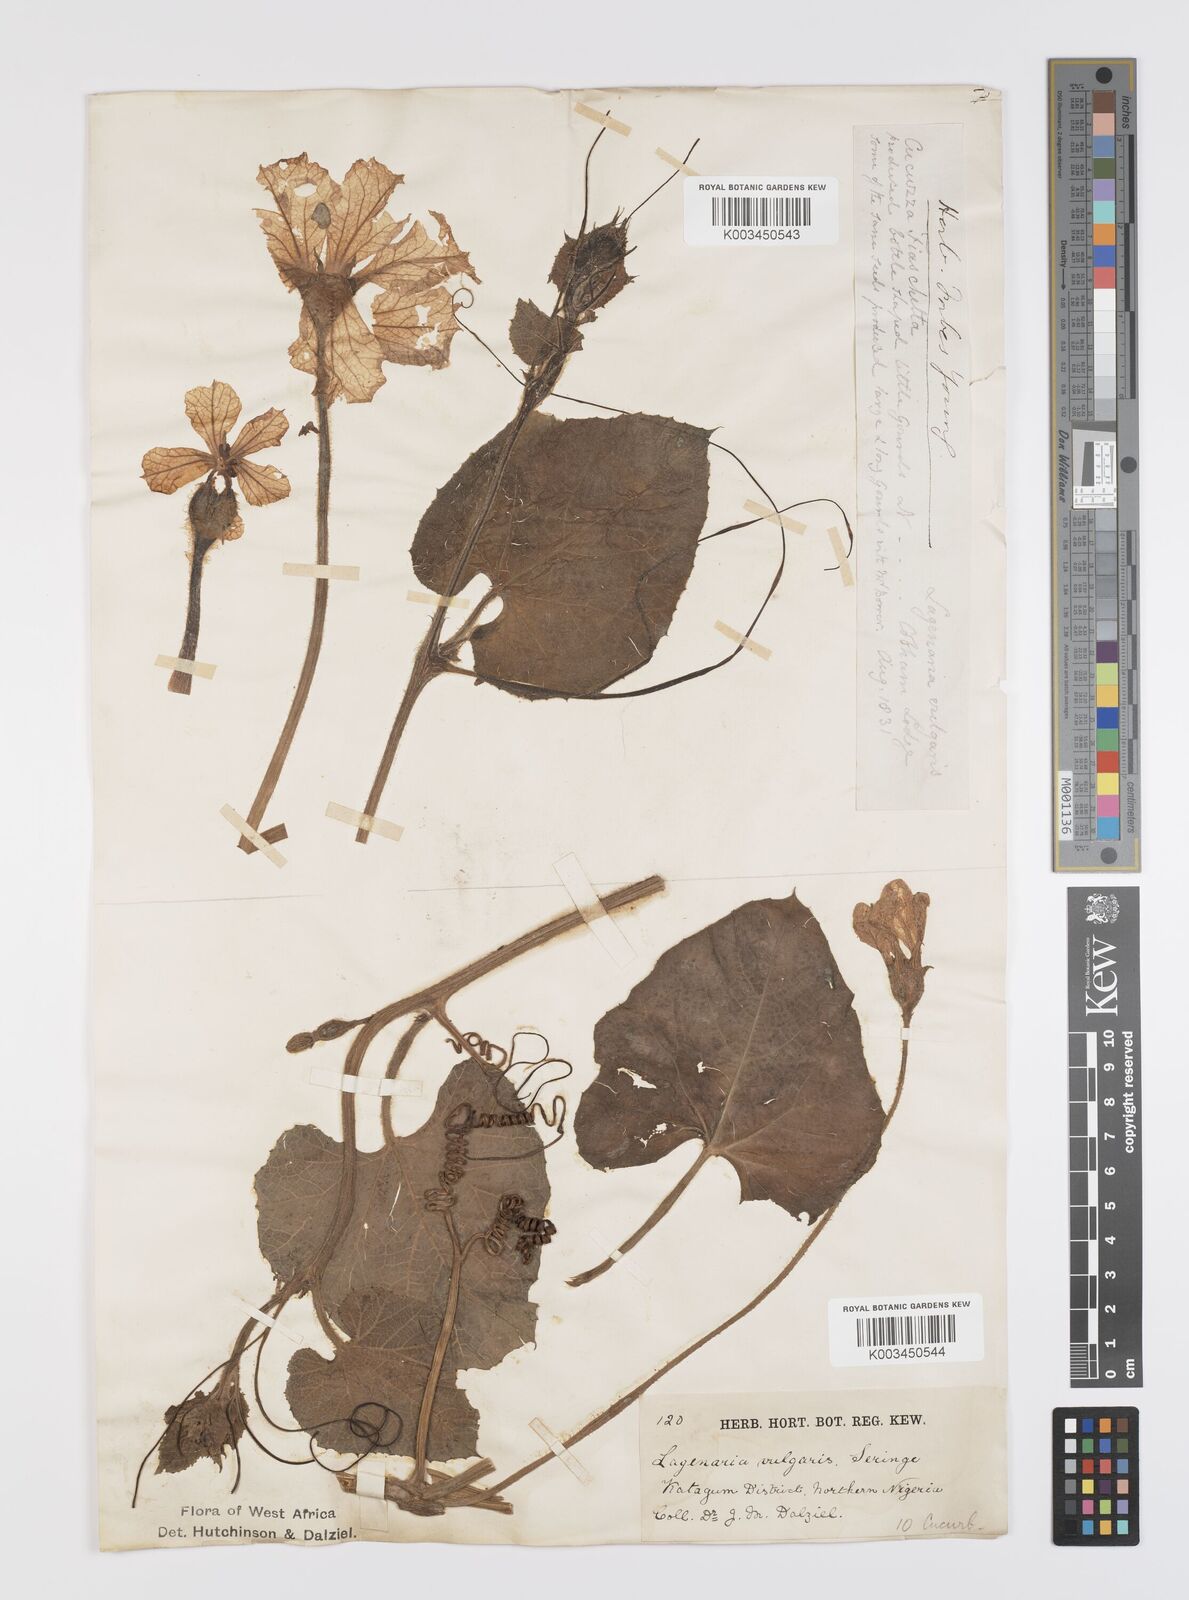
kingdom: Plantae
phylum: Tracheophyta
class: Magnoliopsida
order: Cucurbitales
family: Cucurbitaceae
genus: Lagenaria
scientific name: Lagenaria siceraria
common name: Bottle gourd
